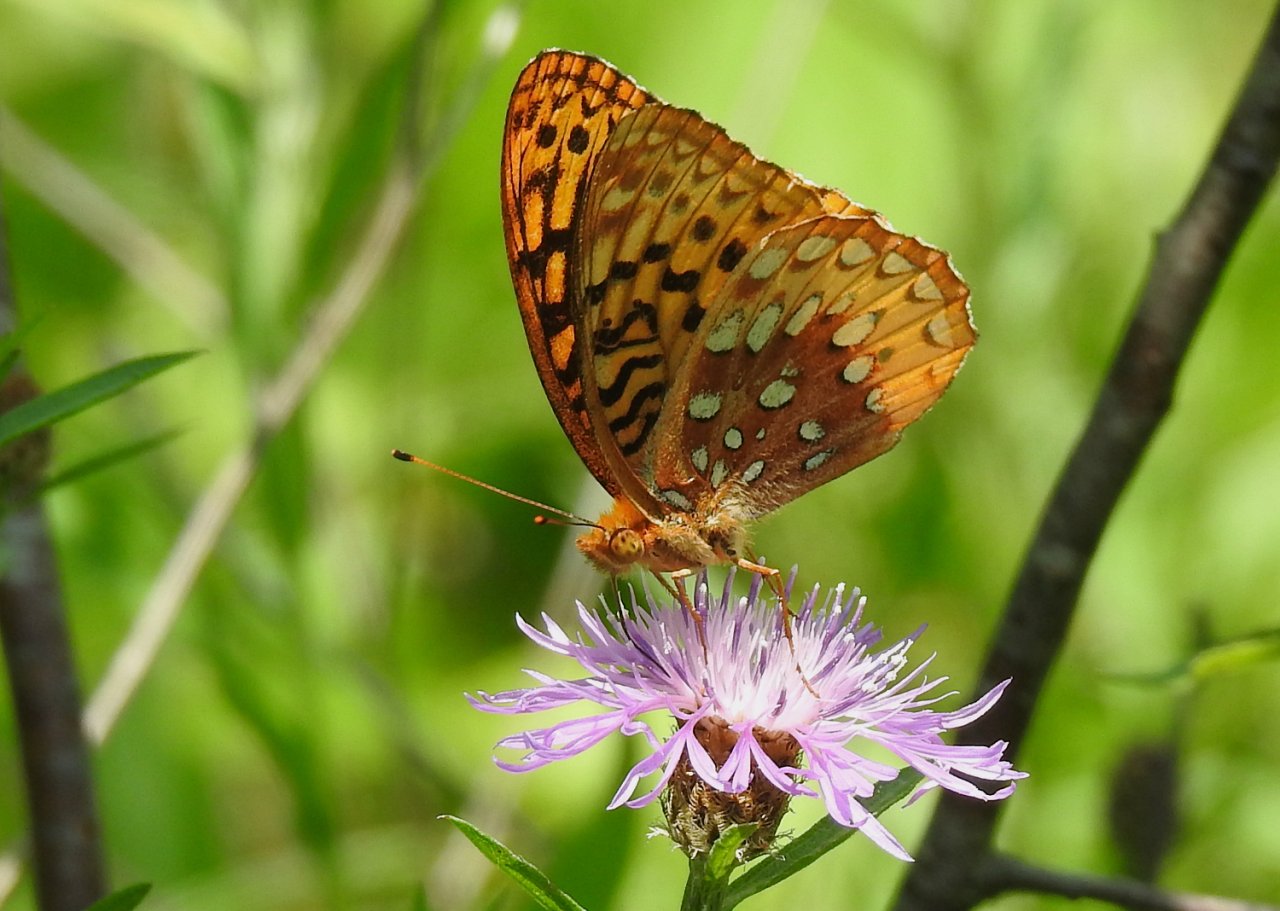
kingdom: Animalia
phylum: Arthropoda
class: Insecta
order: Lepidoptera
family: Nymphalidae
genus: Speyeria
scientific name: Speyeria cybele
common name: Great Spangled Fritillary
